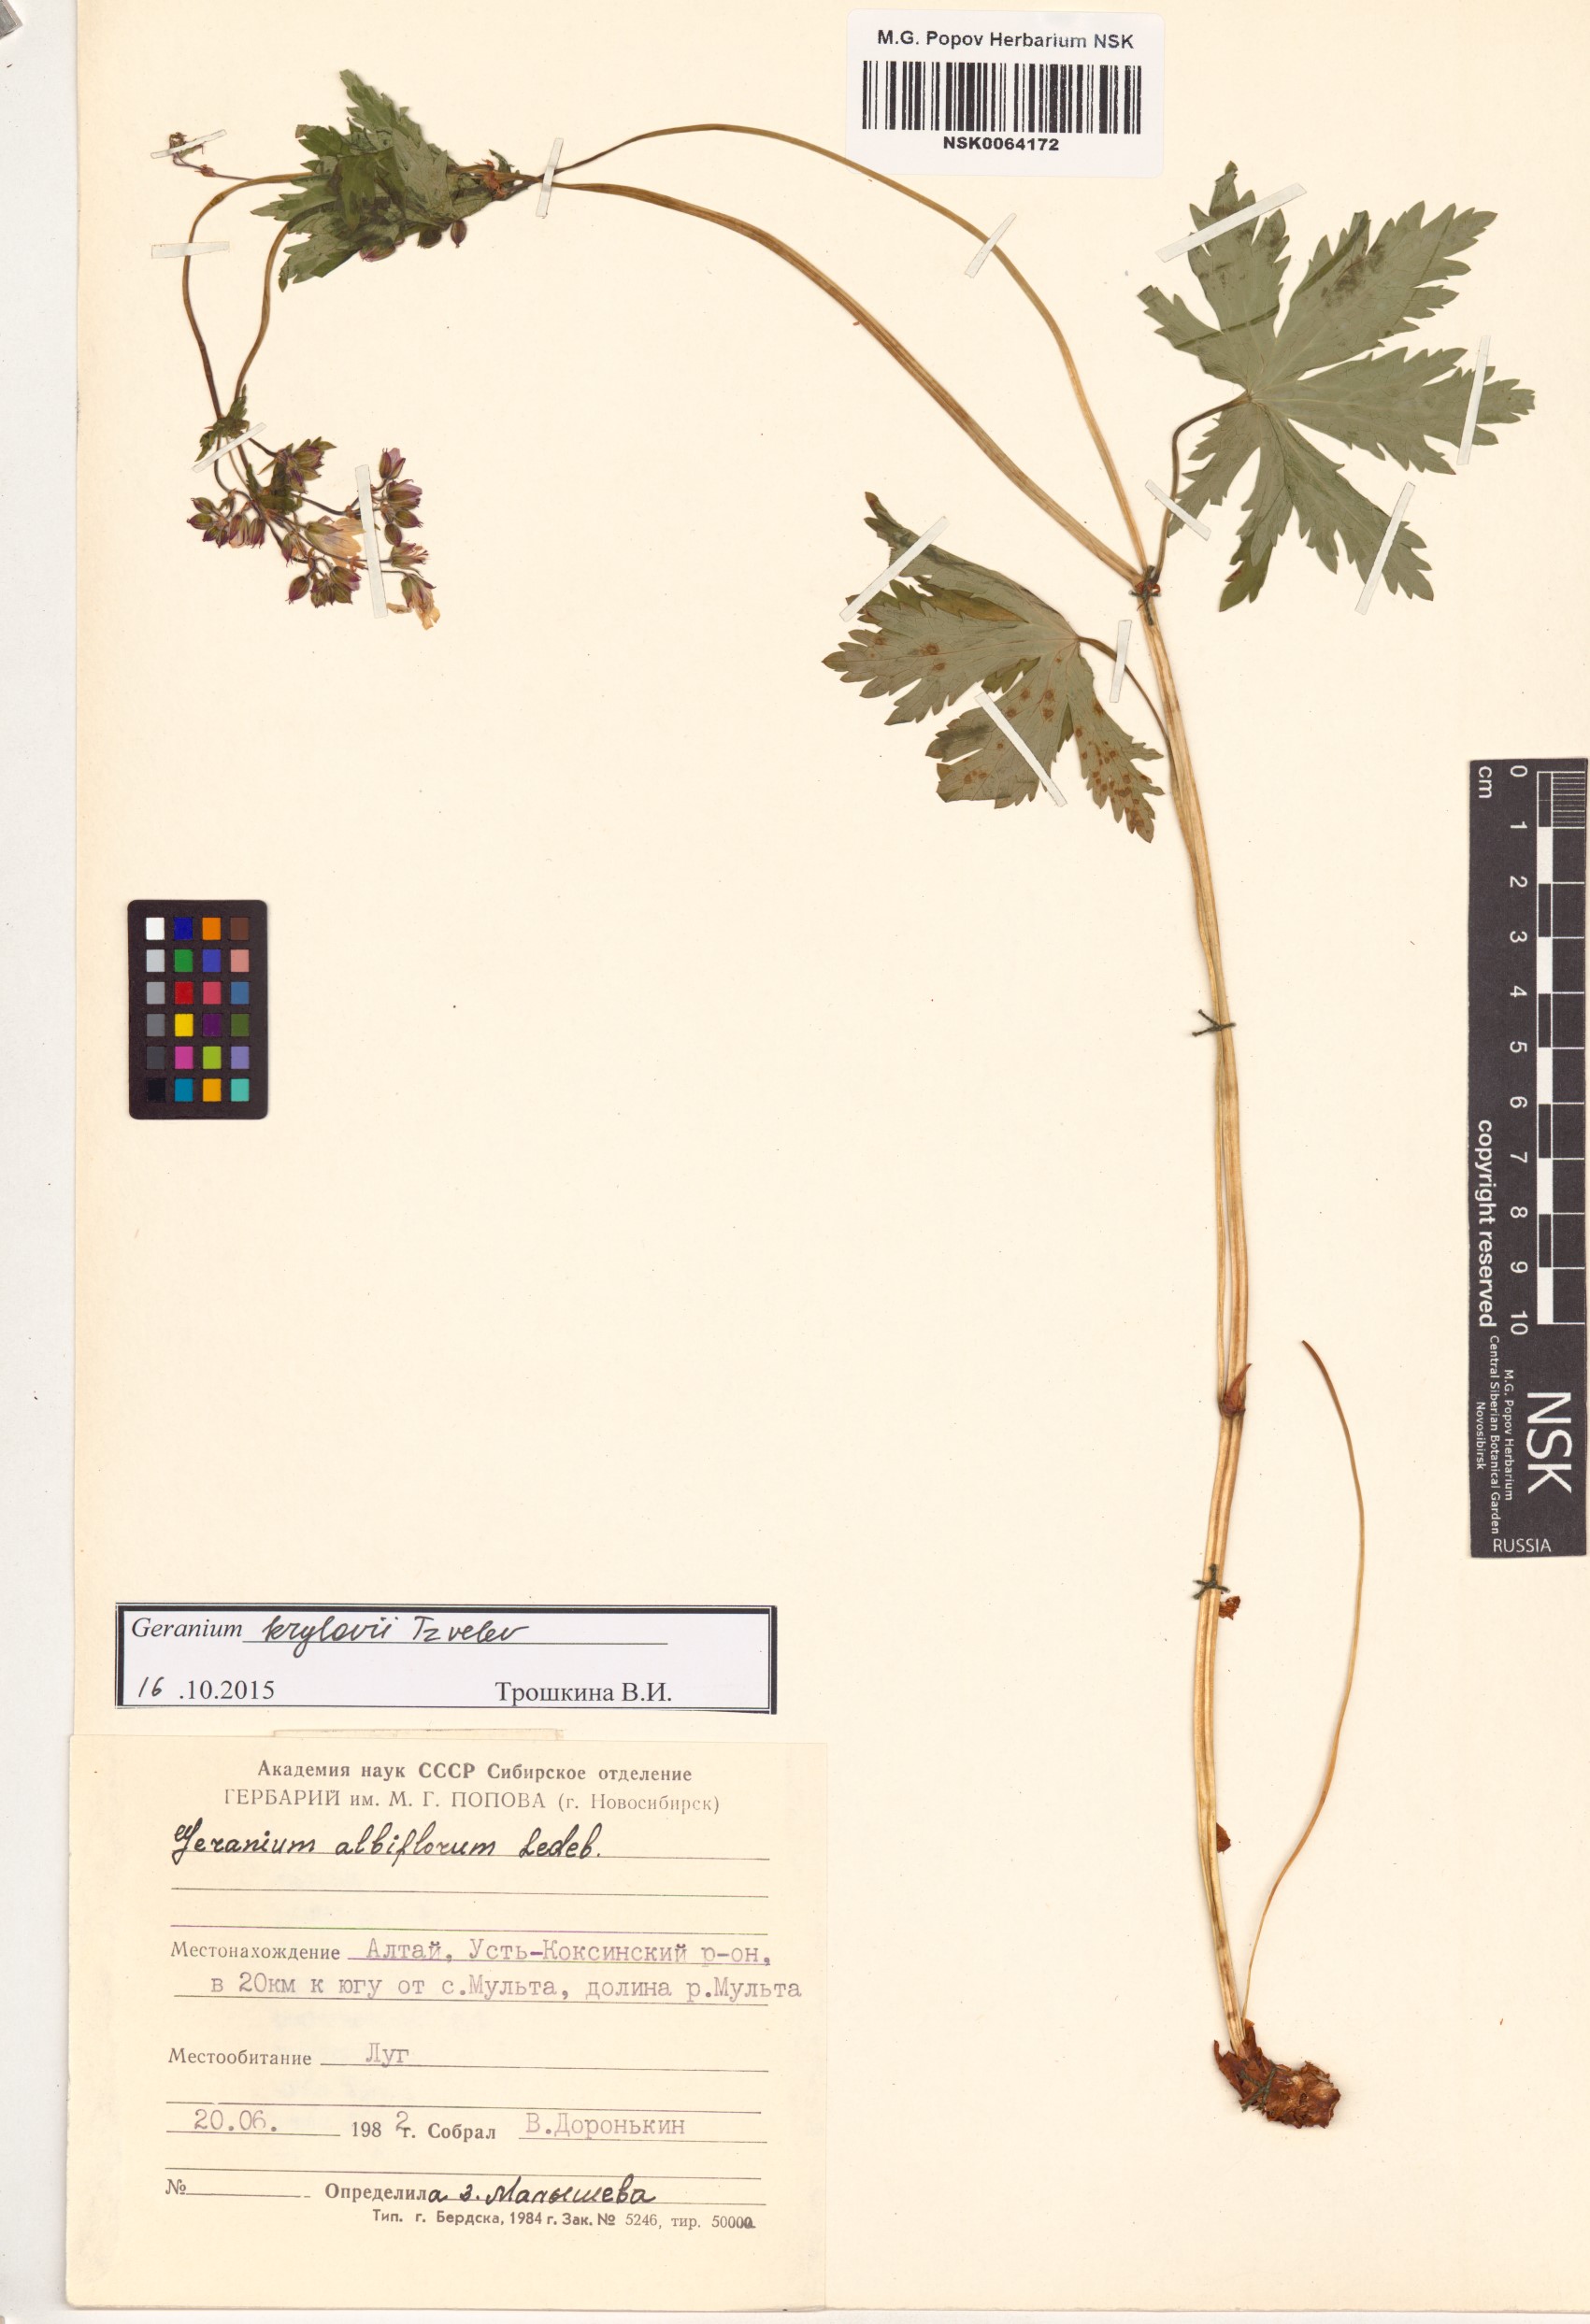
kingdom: Plantae
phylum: Tracheophyta
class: Magnoliopsida
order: Geraniales
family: Geraniaceae
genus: Geranium
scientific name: Geranium sylvaticum
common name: Wood crane's-bill
